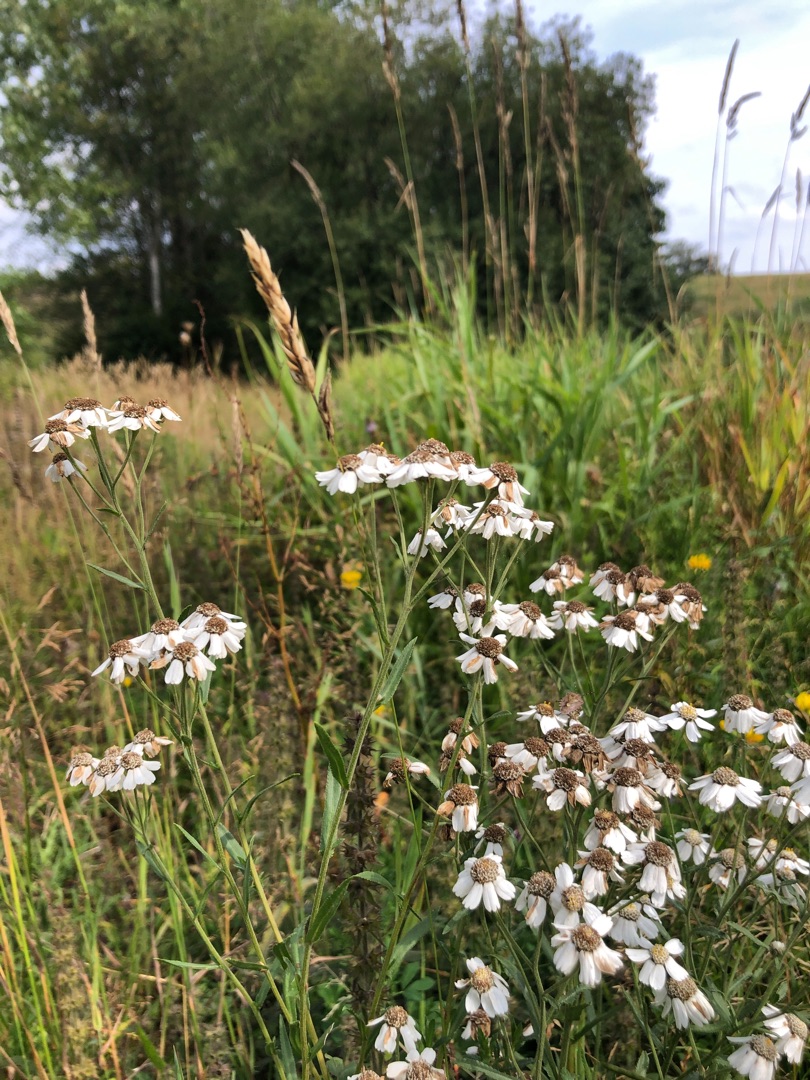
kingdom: Plantae
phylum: Tracheophyta
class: Magnoliopsida
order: Asterales
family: Asteraceae
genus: Achillea
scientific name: Achillea ptarmica
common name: Nyse-røllike
